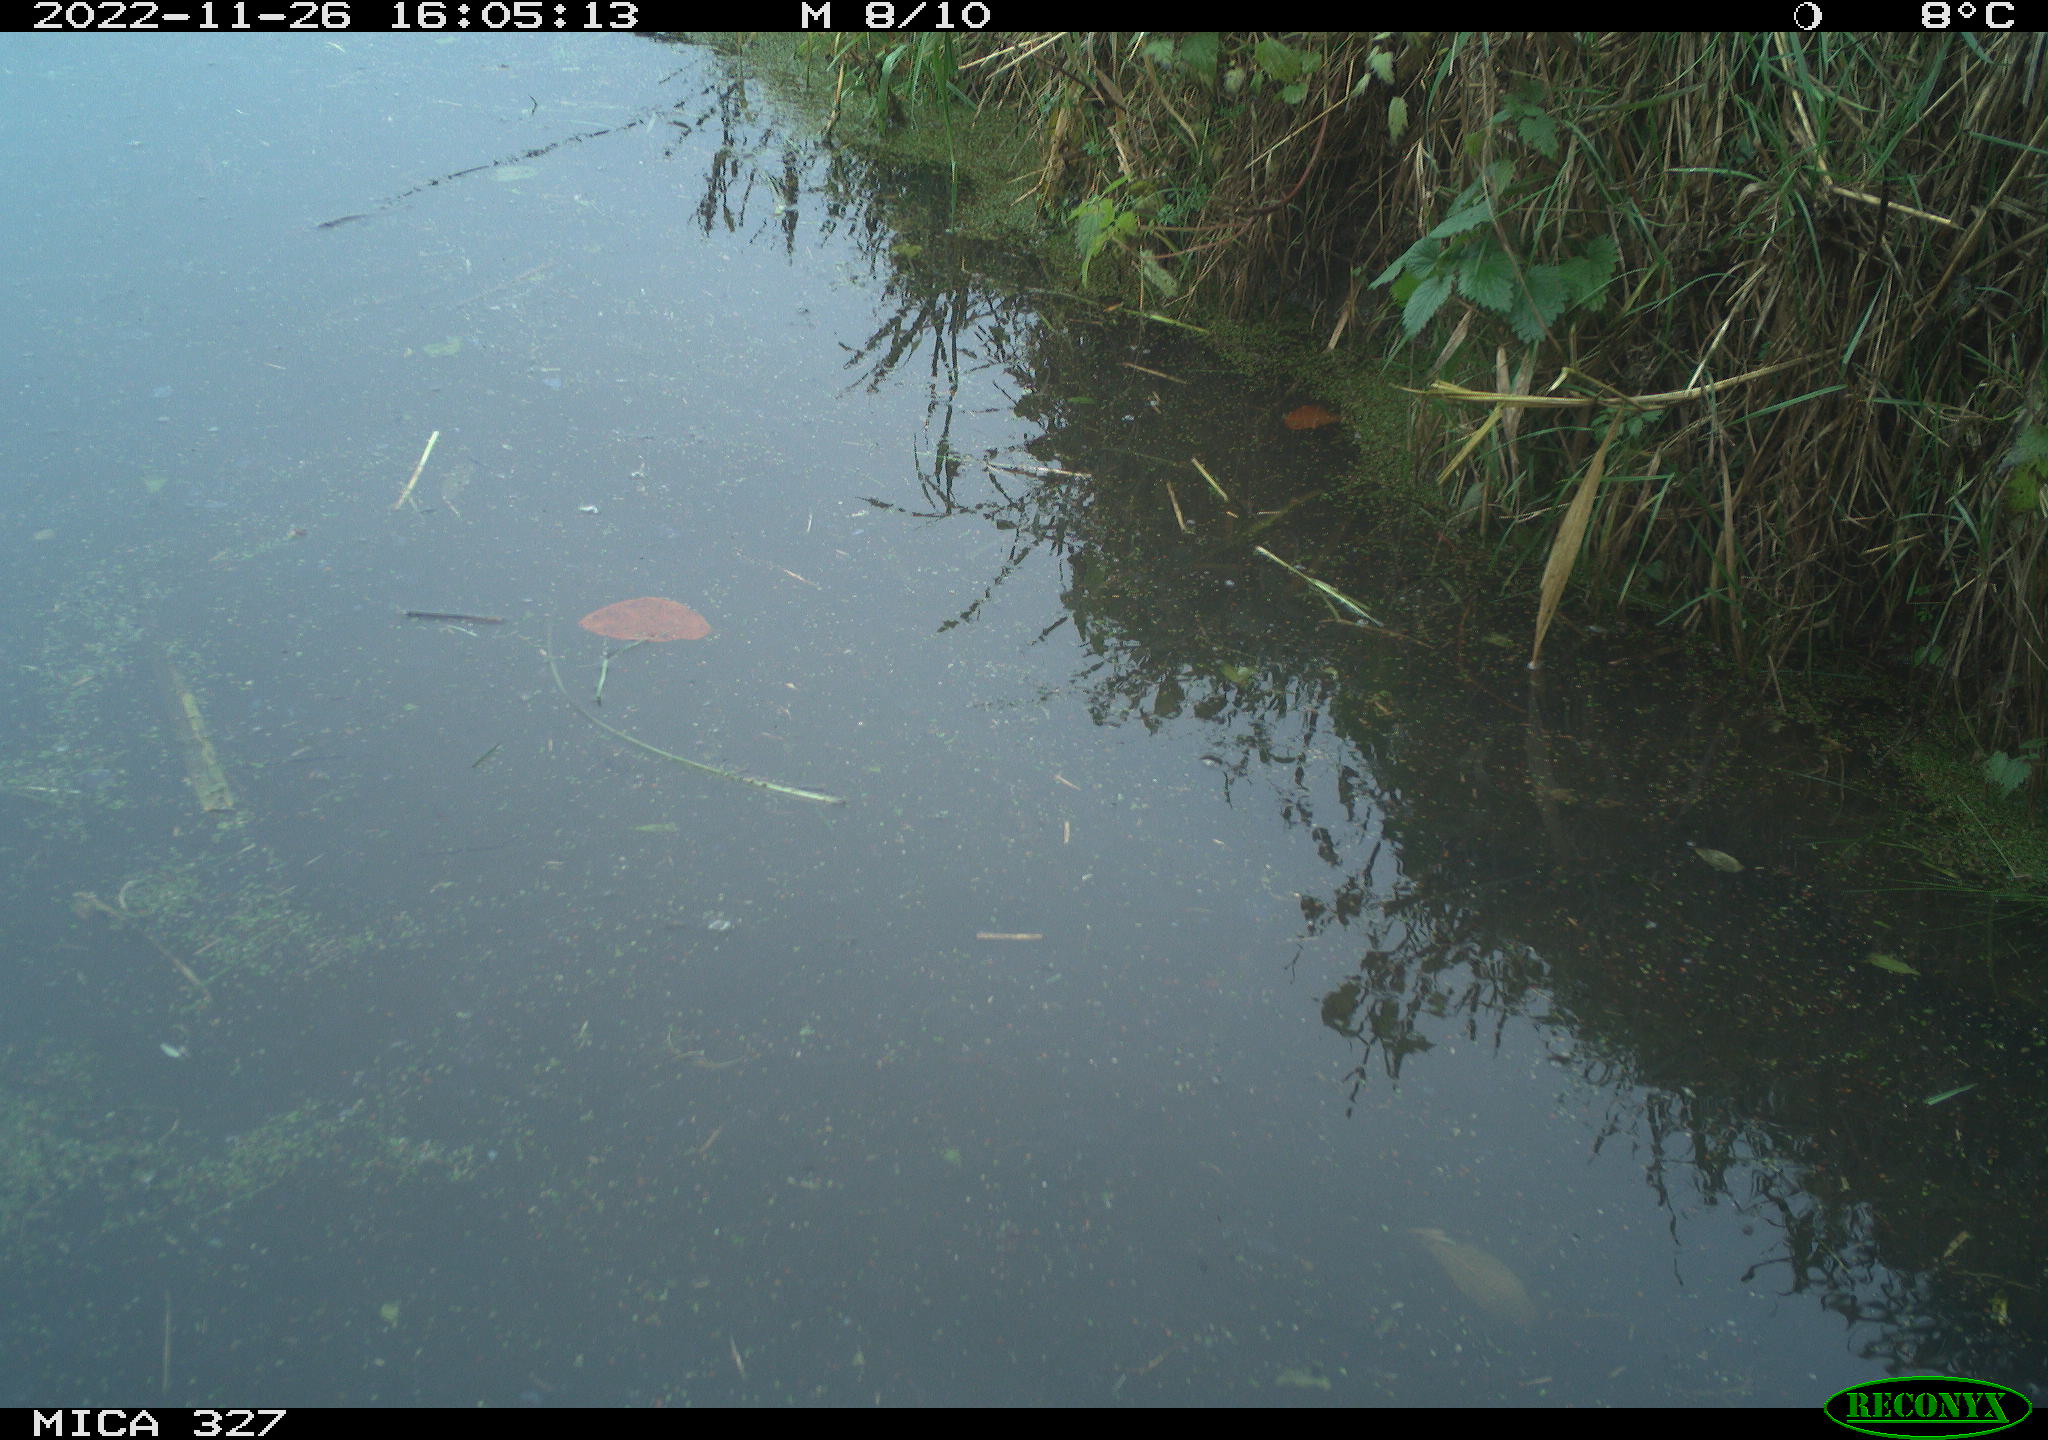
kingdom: Animalia
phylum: Chordata
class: Aves
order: Gruiformes
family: Rallidae
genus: Gallinula
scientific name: Gallinula chloropus
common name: Common moorhen
